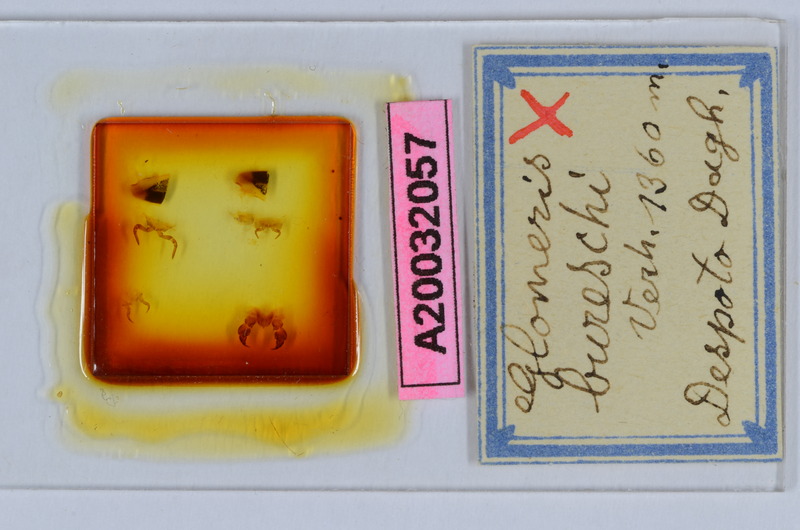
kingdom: Animalia
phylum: Arthropoda
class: Diplopoda
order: Glomerida
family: Glomeridae
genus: Glomeris
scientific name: Glomeris bureschi
